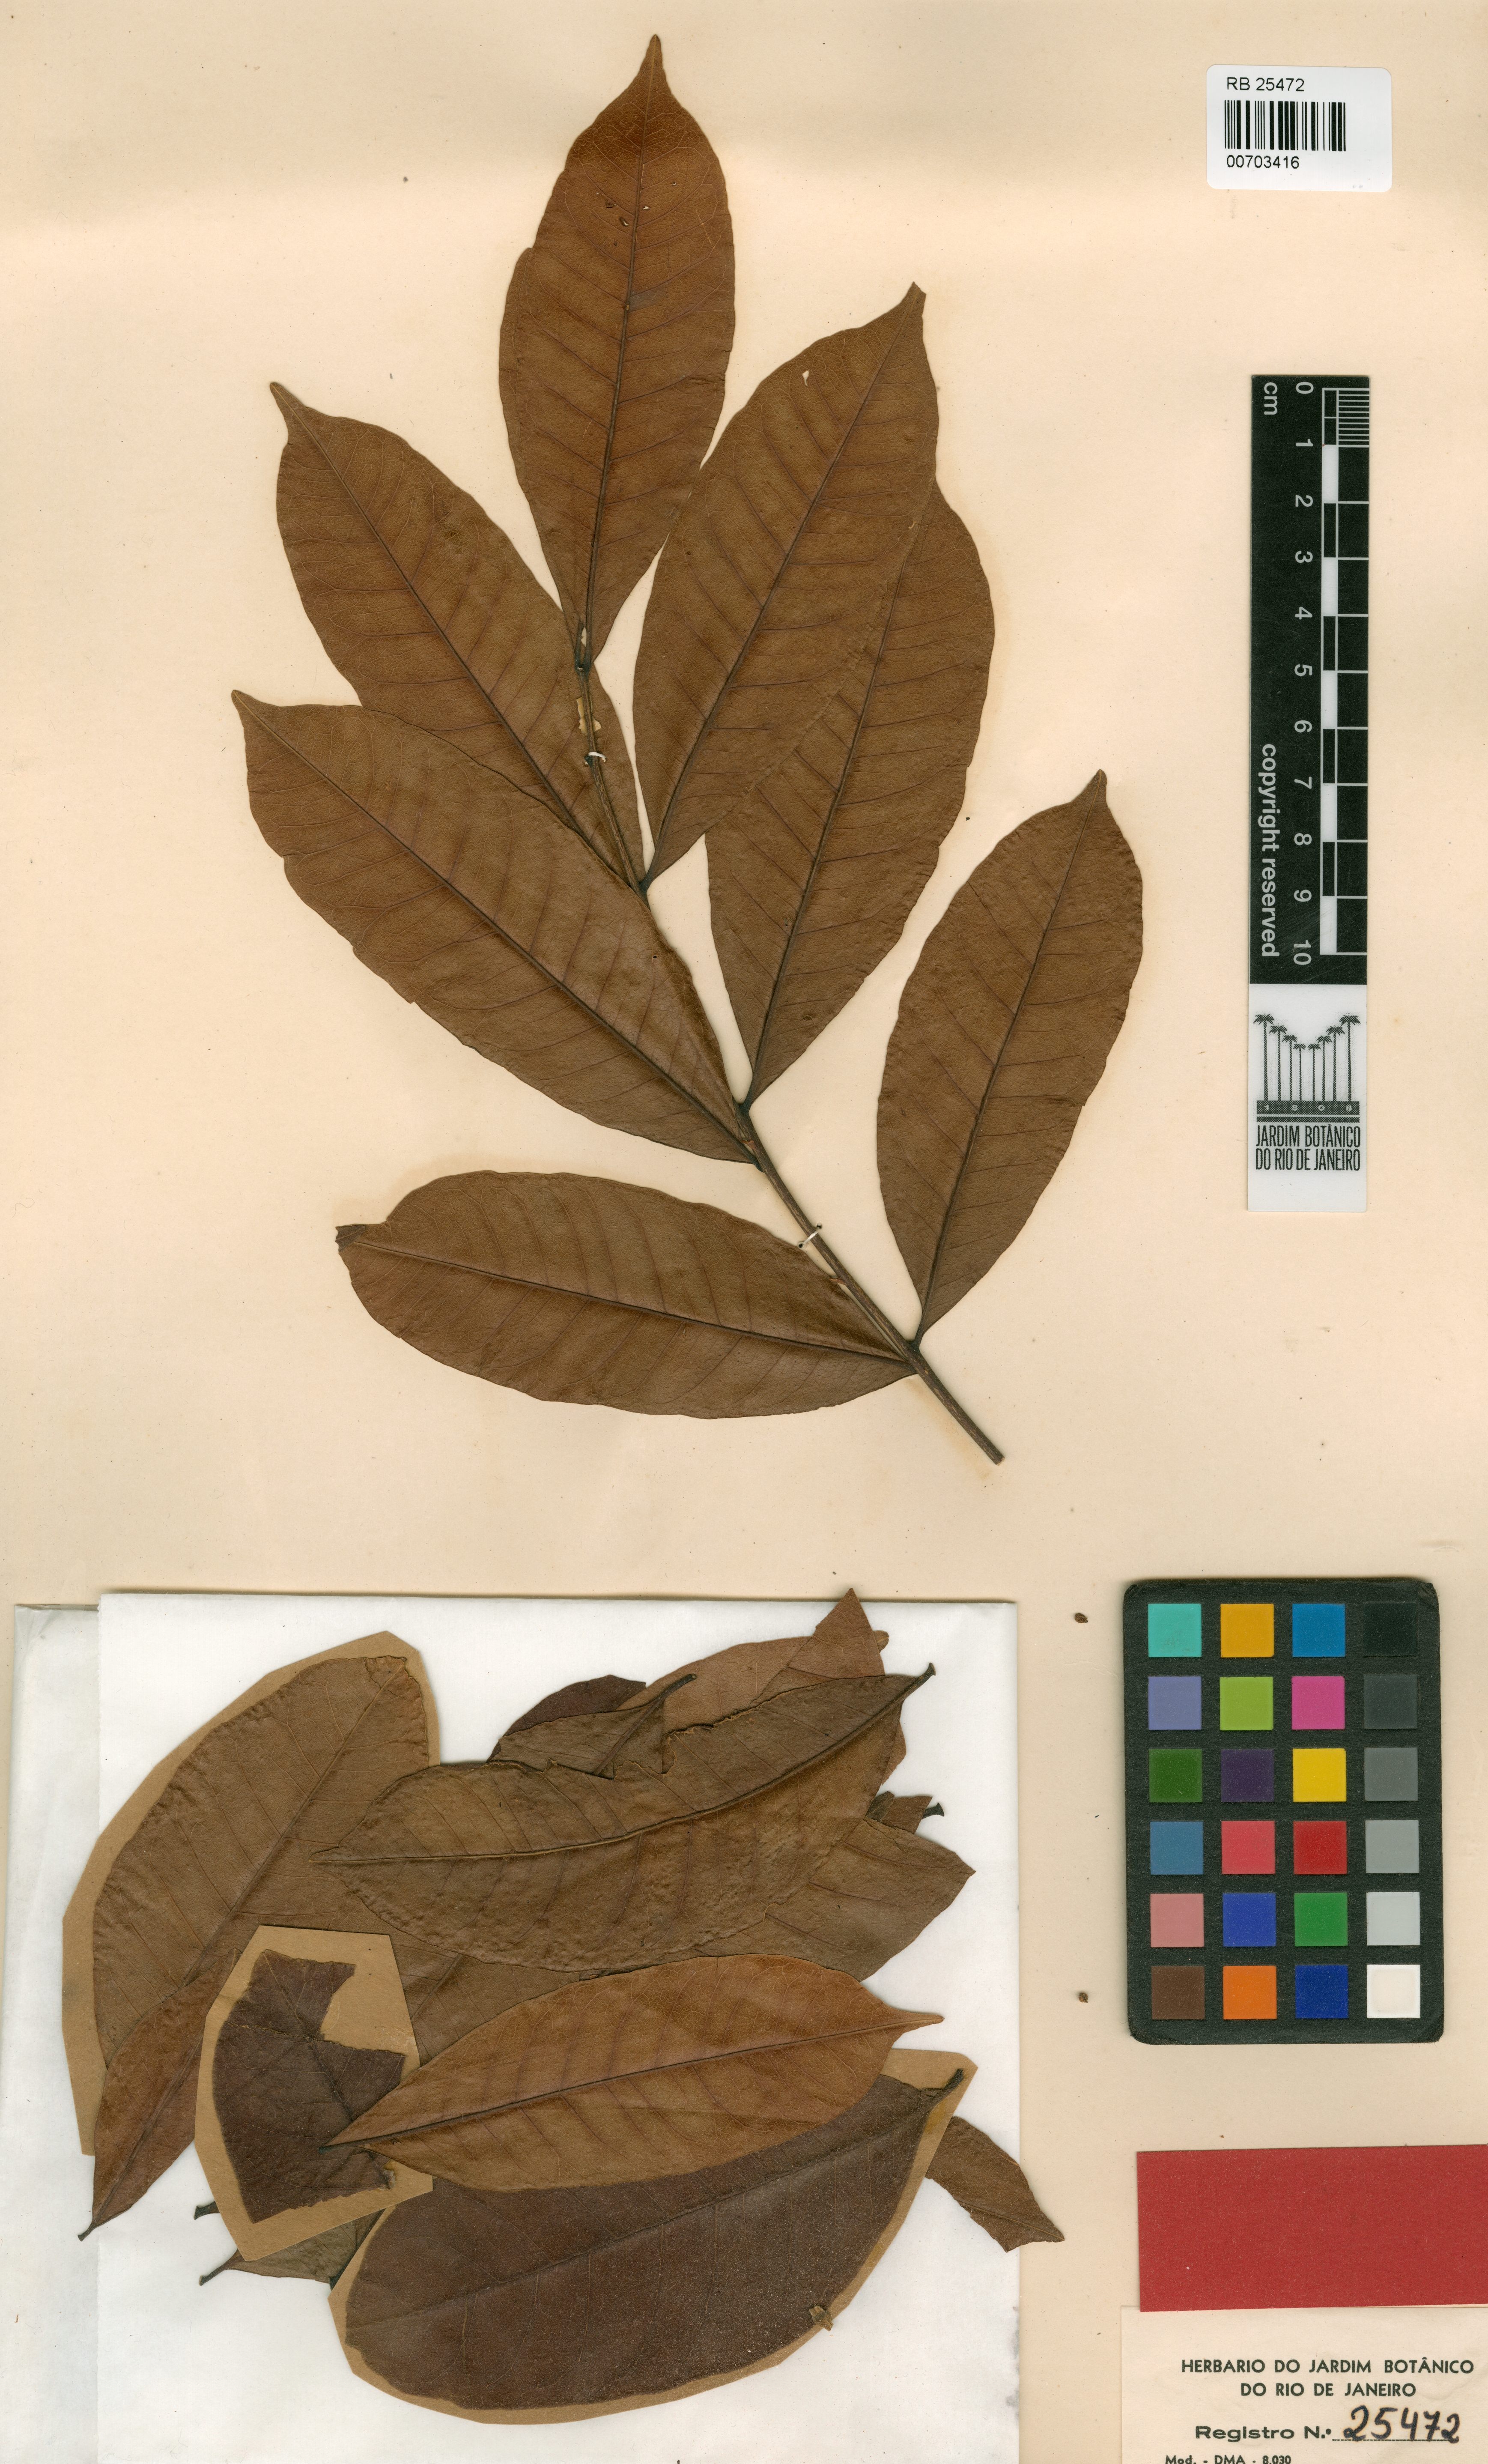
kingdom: Plantae
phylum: Tracheophyta
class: Magnoliopsida
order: Sapindales
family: Rutaceae
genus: Zanthoxylum
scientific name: Zanthoxylum compactum
